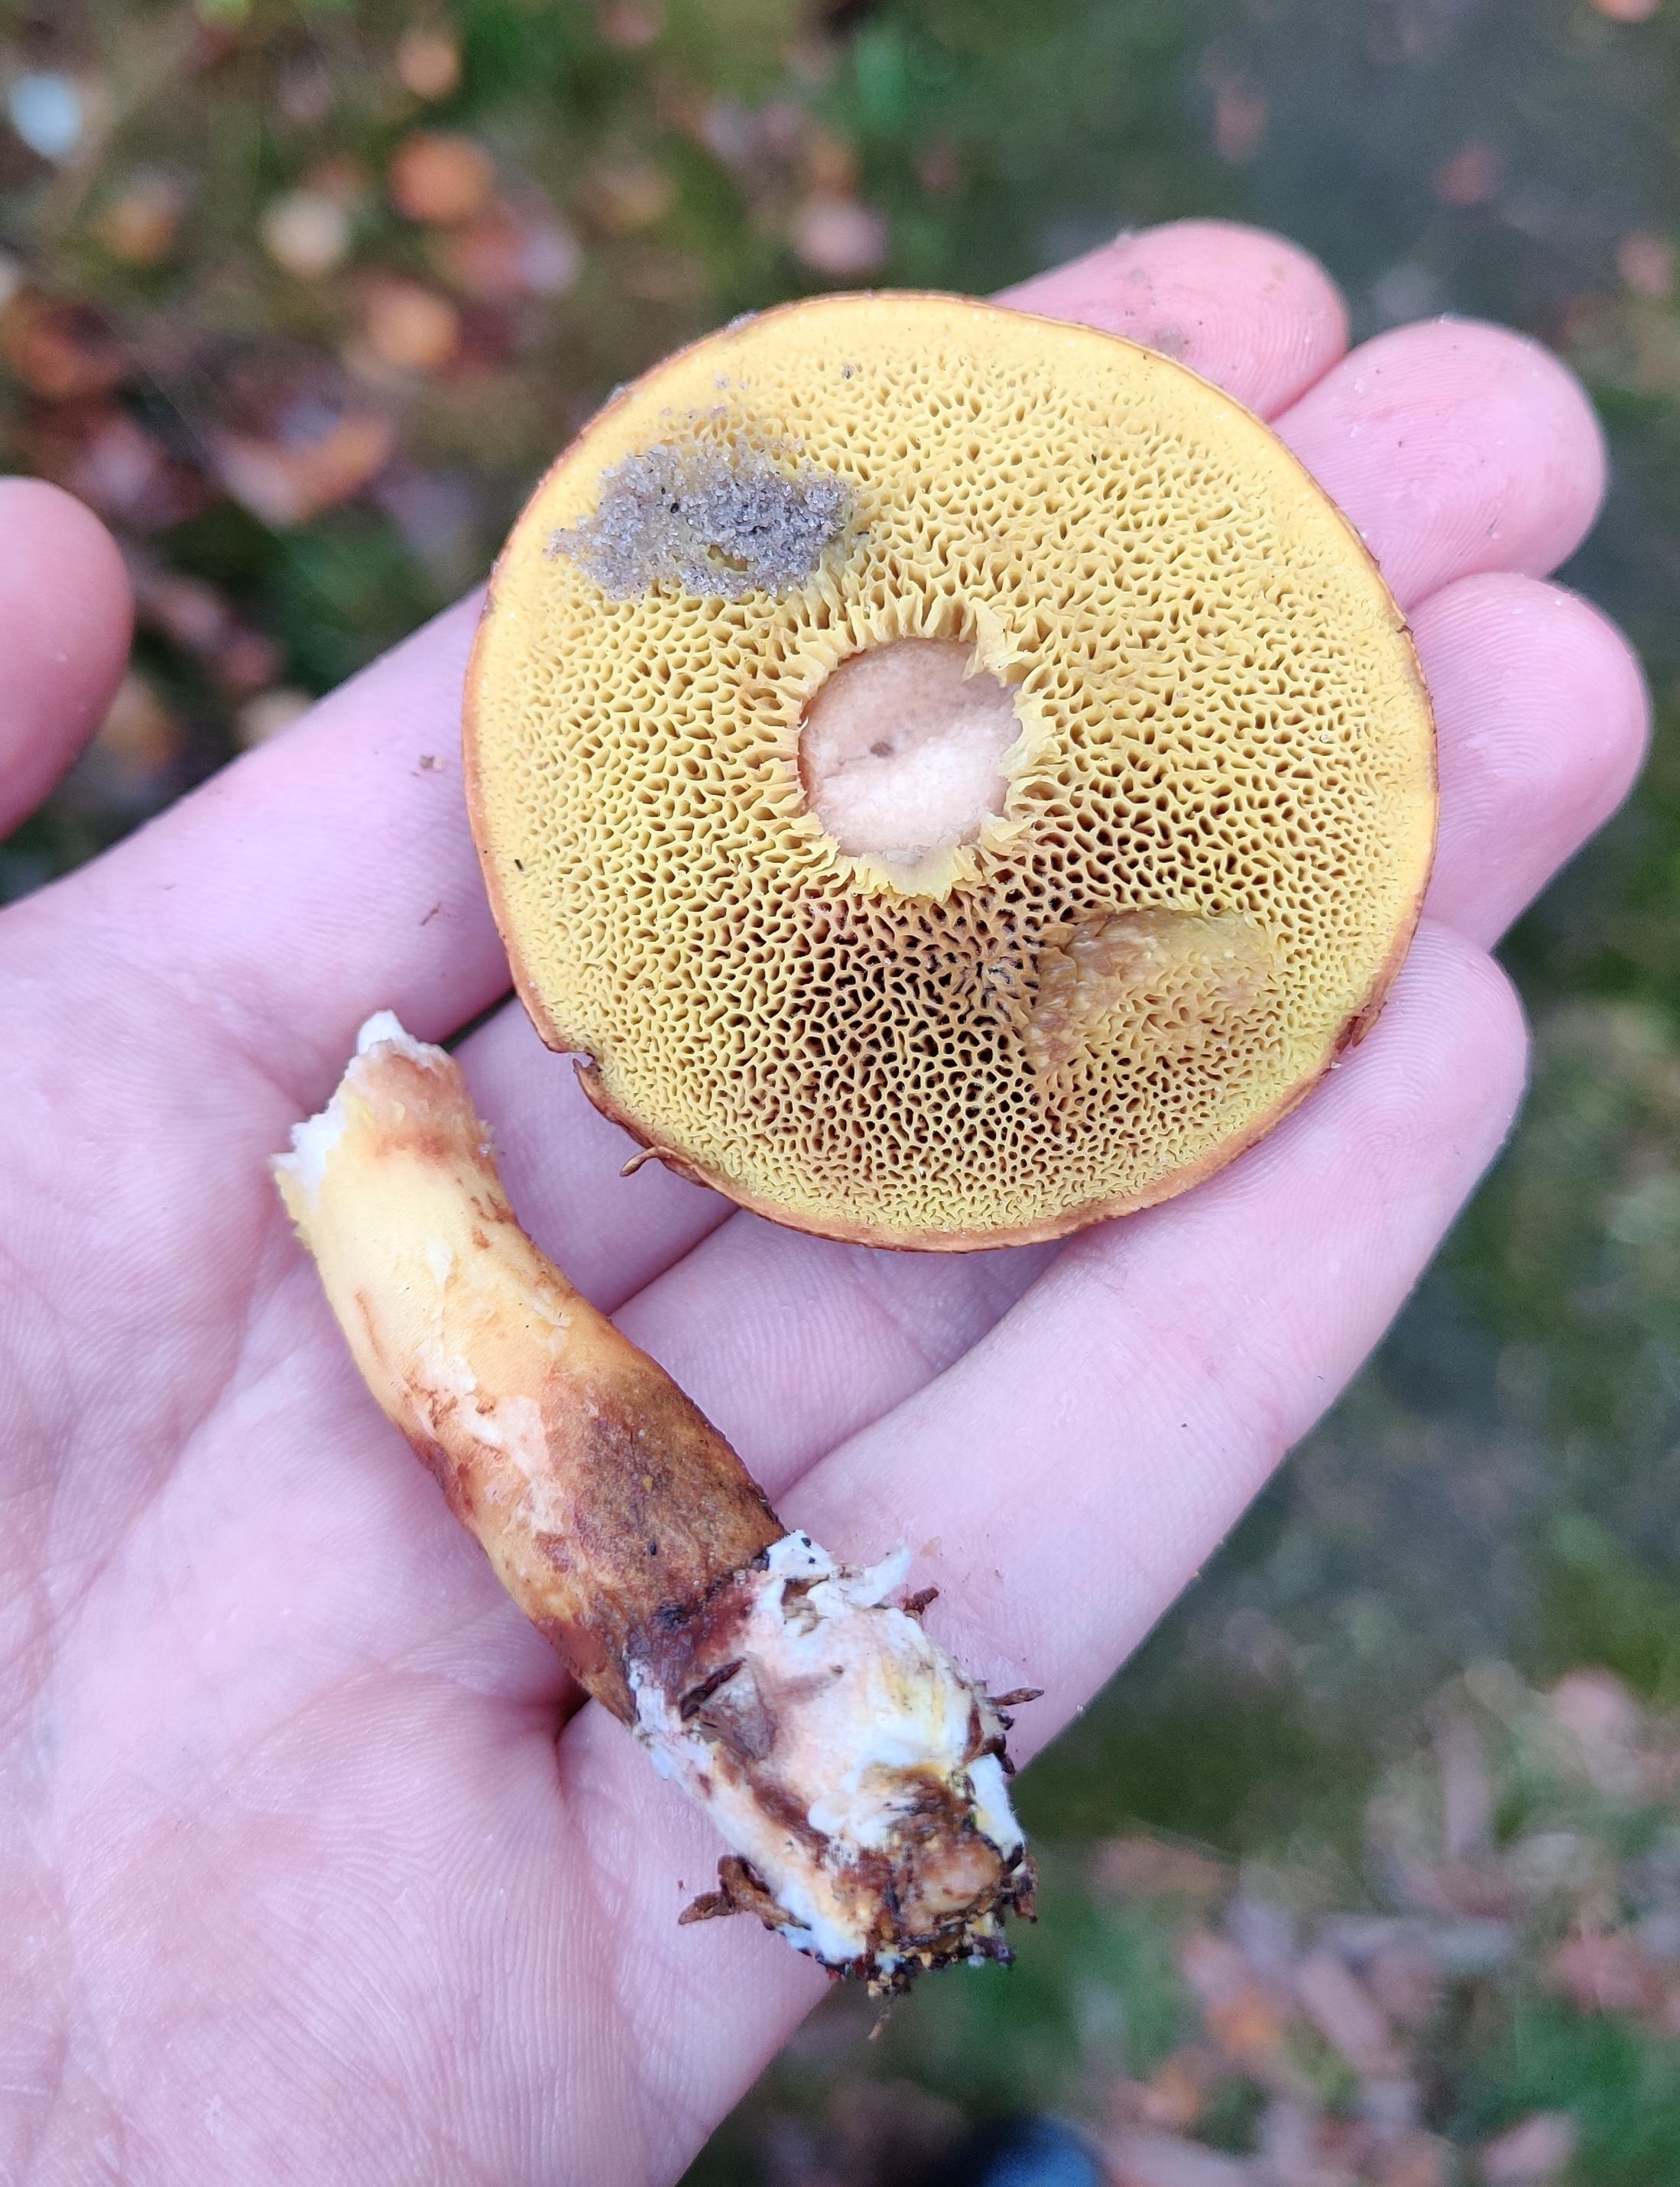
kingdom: Fungi
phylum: Basidiomycota
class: Agaricomycetes
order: Boletales
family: Boletaceae
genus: Imleria
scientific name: Imleria badia
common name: brunstokket rørhat
